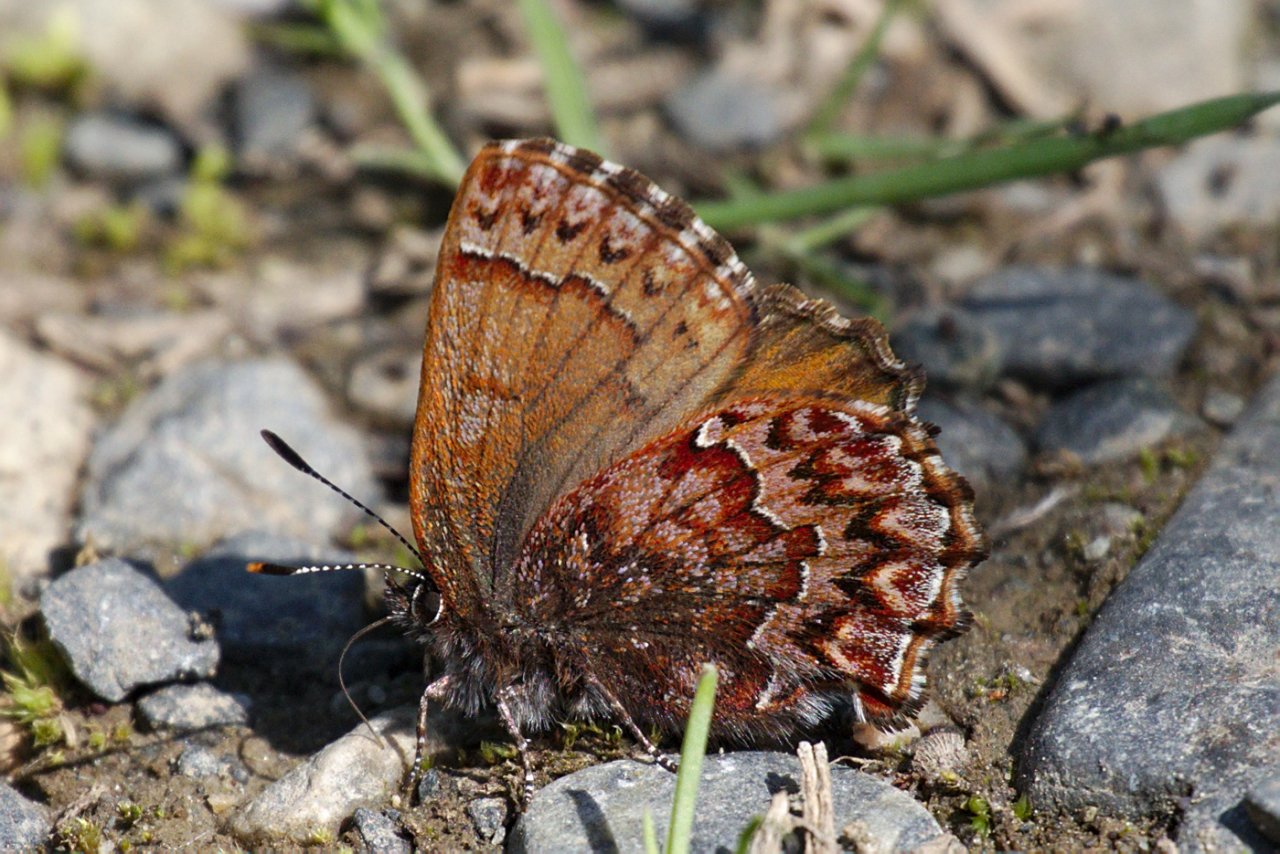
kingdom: Animalia
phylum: Arthropoda
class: Insecta
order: Lepidoptera
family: Lycaenidae
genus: Incisalia
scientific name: Incisalia eryphon
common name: Western Pine Elfin
